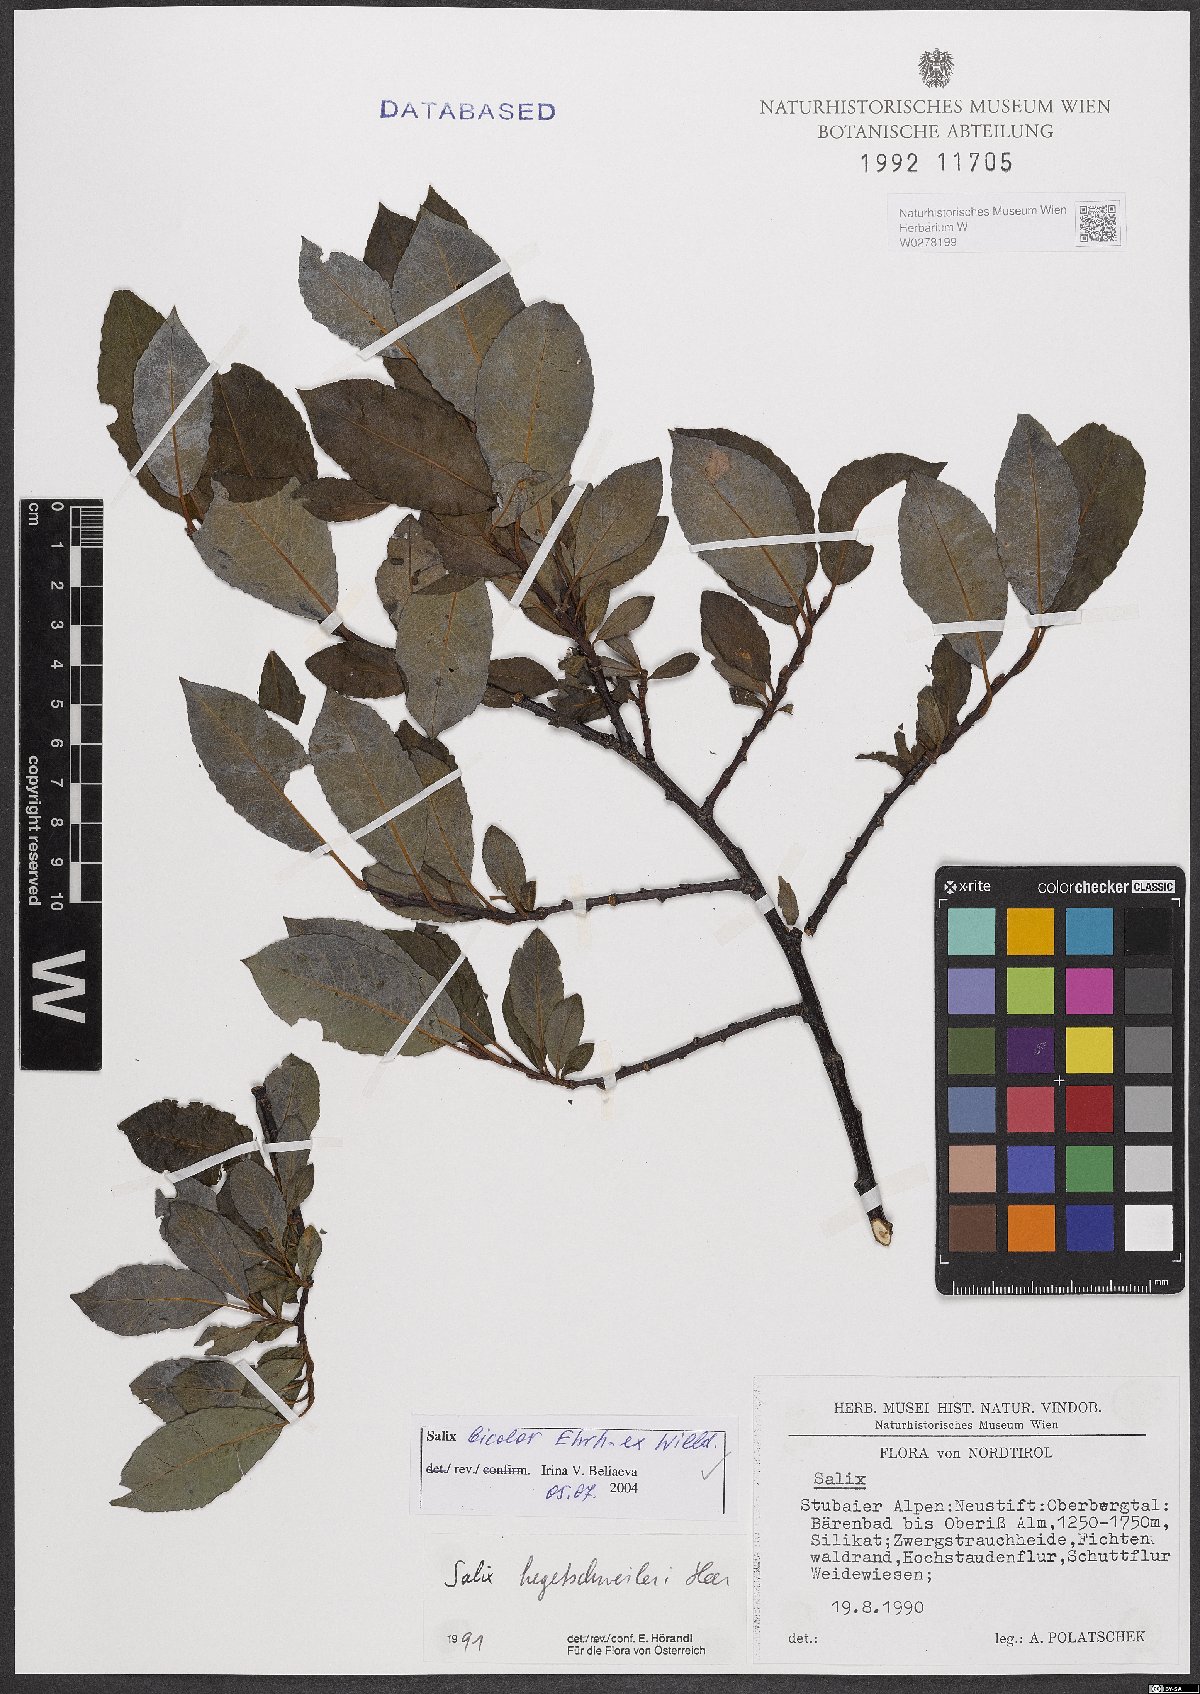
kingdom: Plantae
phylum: Tracheophyta
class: Magnoliopsida
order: Malpighiales
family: Salicaceae
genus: Salix
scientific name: Salix bicolor
